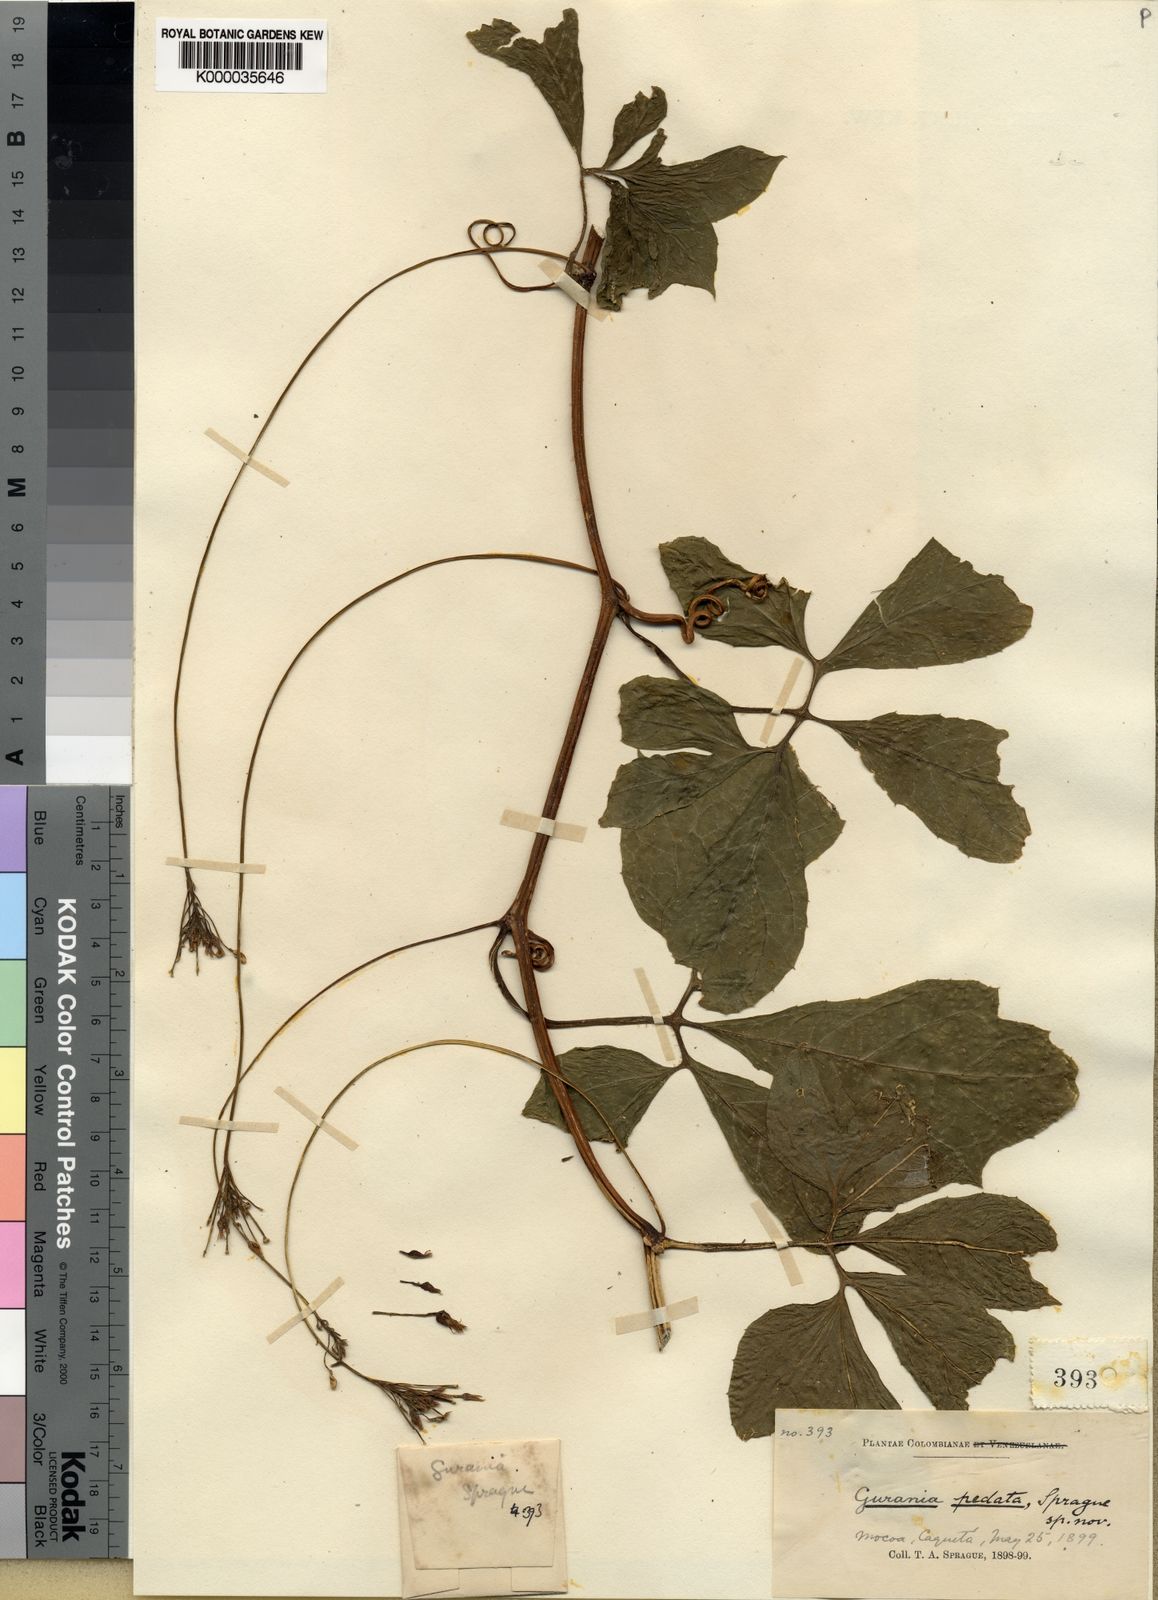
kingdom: Plantae
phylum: Tracheophyta
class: Magnoliopsida
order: Cucurbitales
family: Cucurbitaceae
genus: Gurania
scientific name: Gurania pedata
